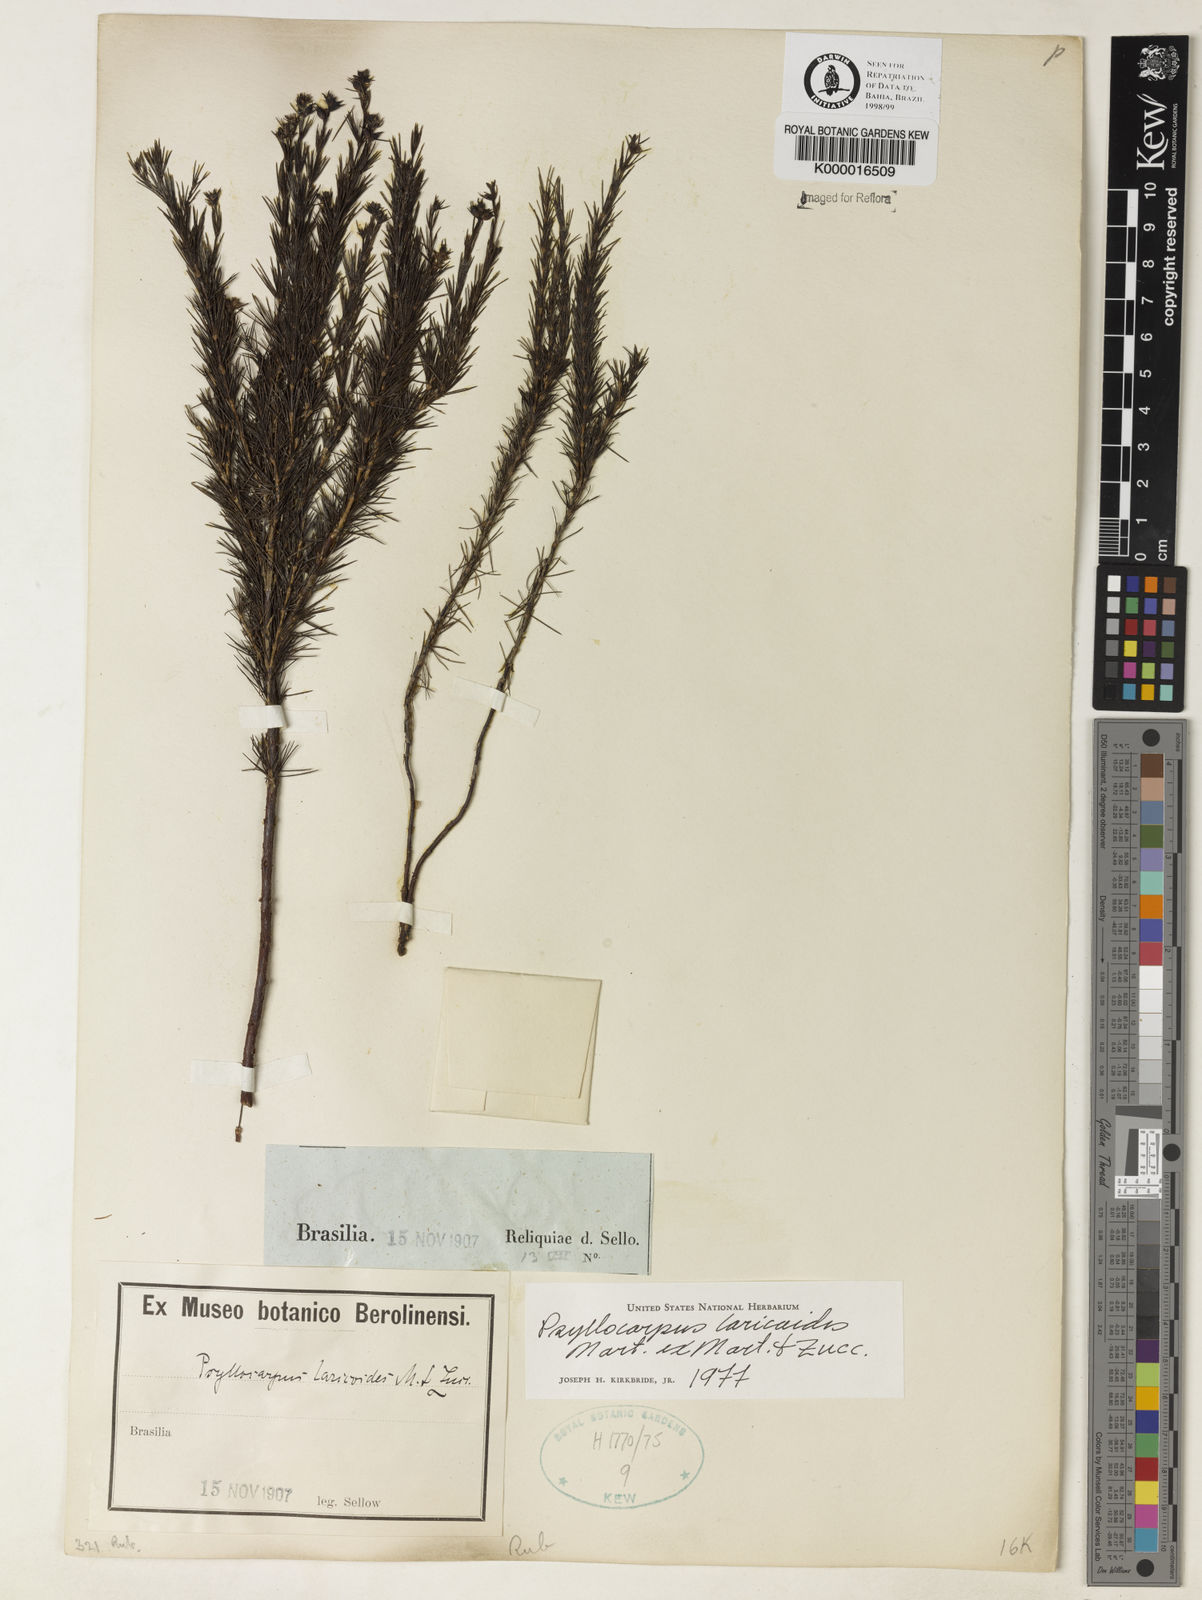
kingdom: Plantae
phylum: Tracheophyta
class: Magnoliopsida
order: Gentianales
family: Rubiaceae
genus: Psyllocarpus
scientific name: Psyllocarpus laricoides
